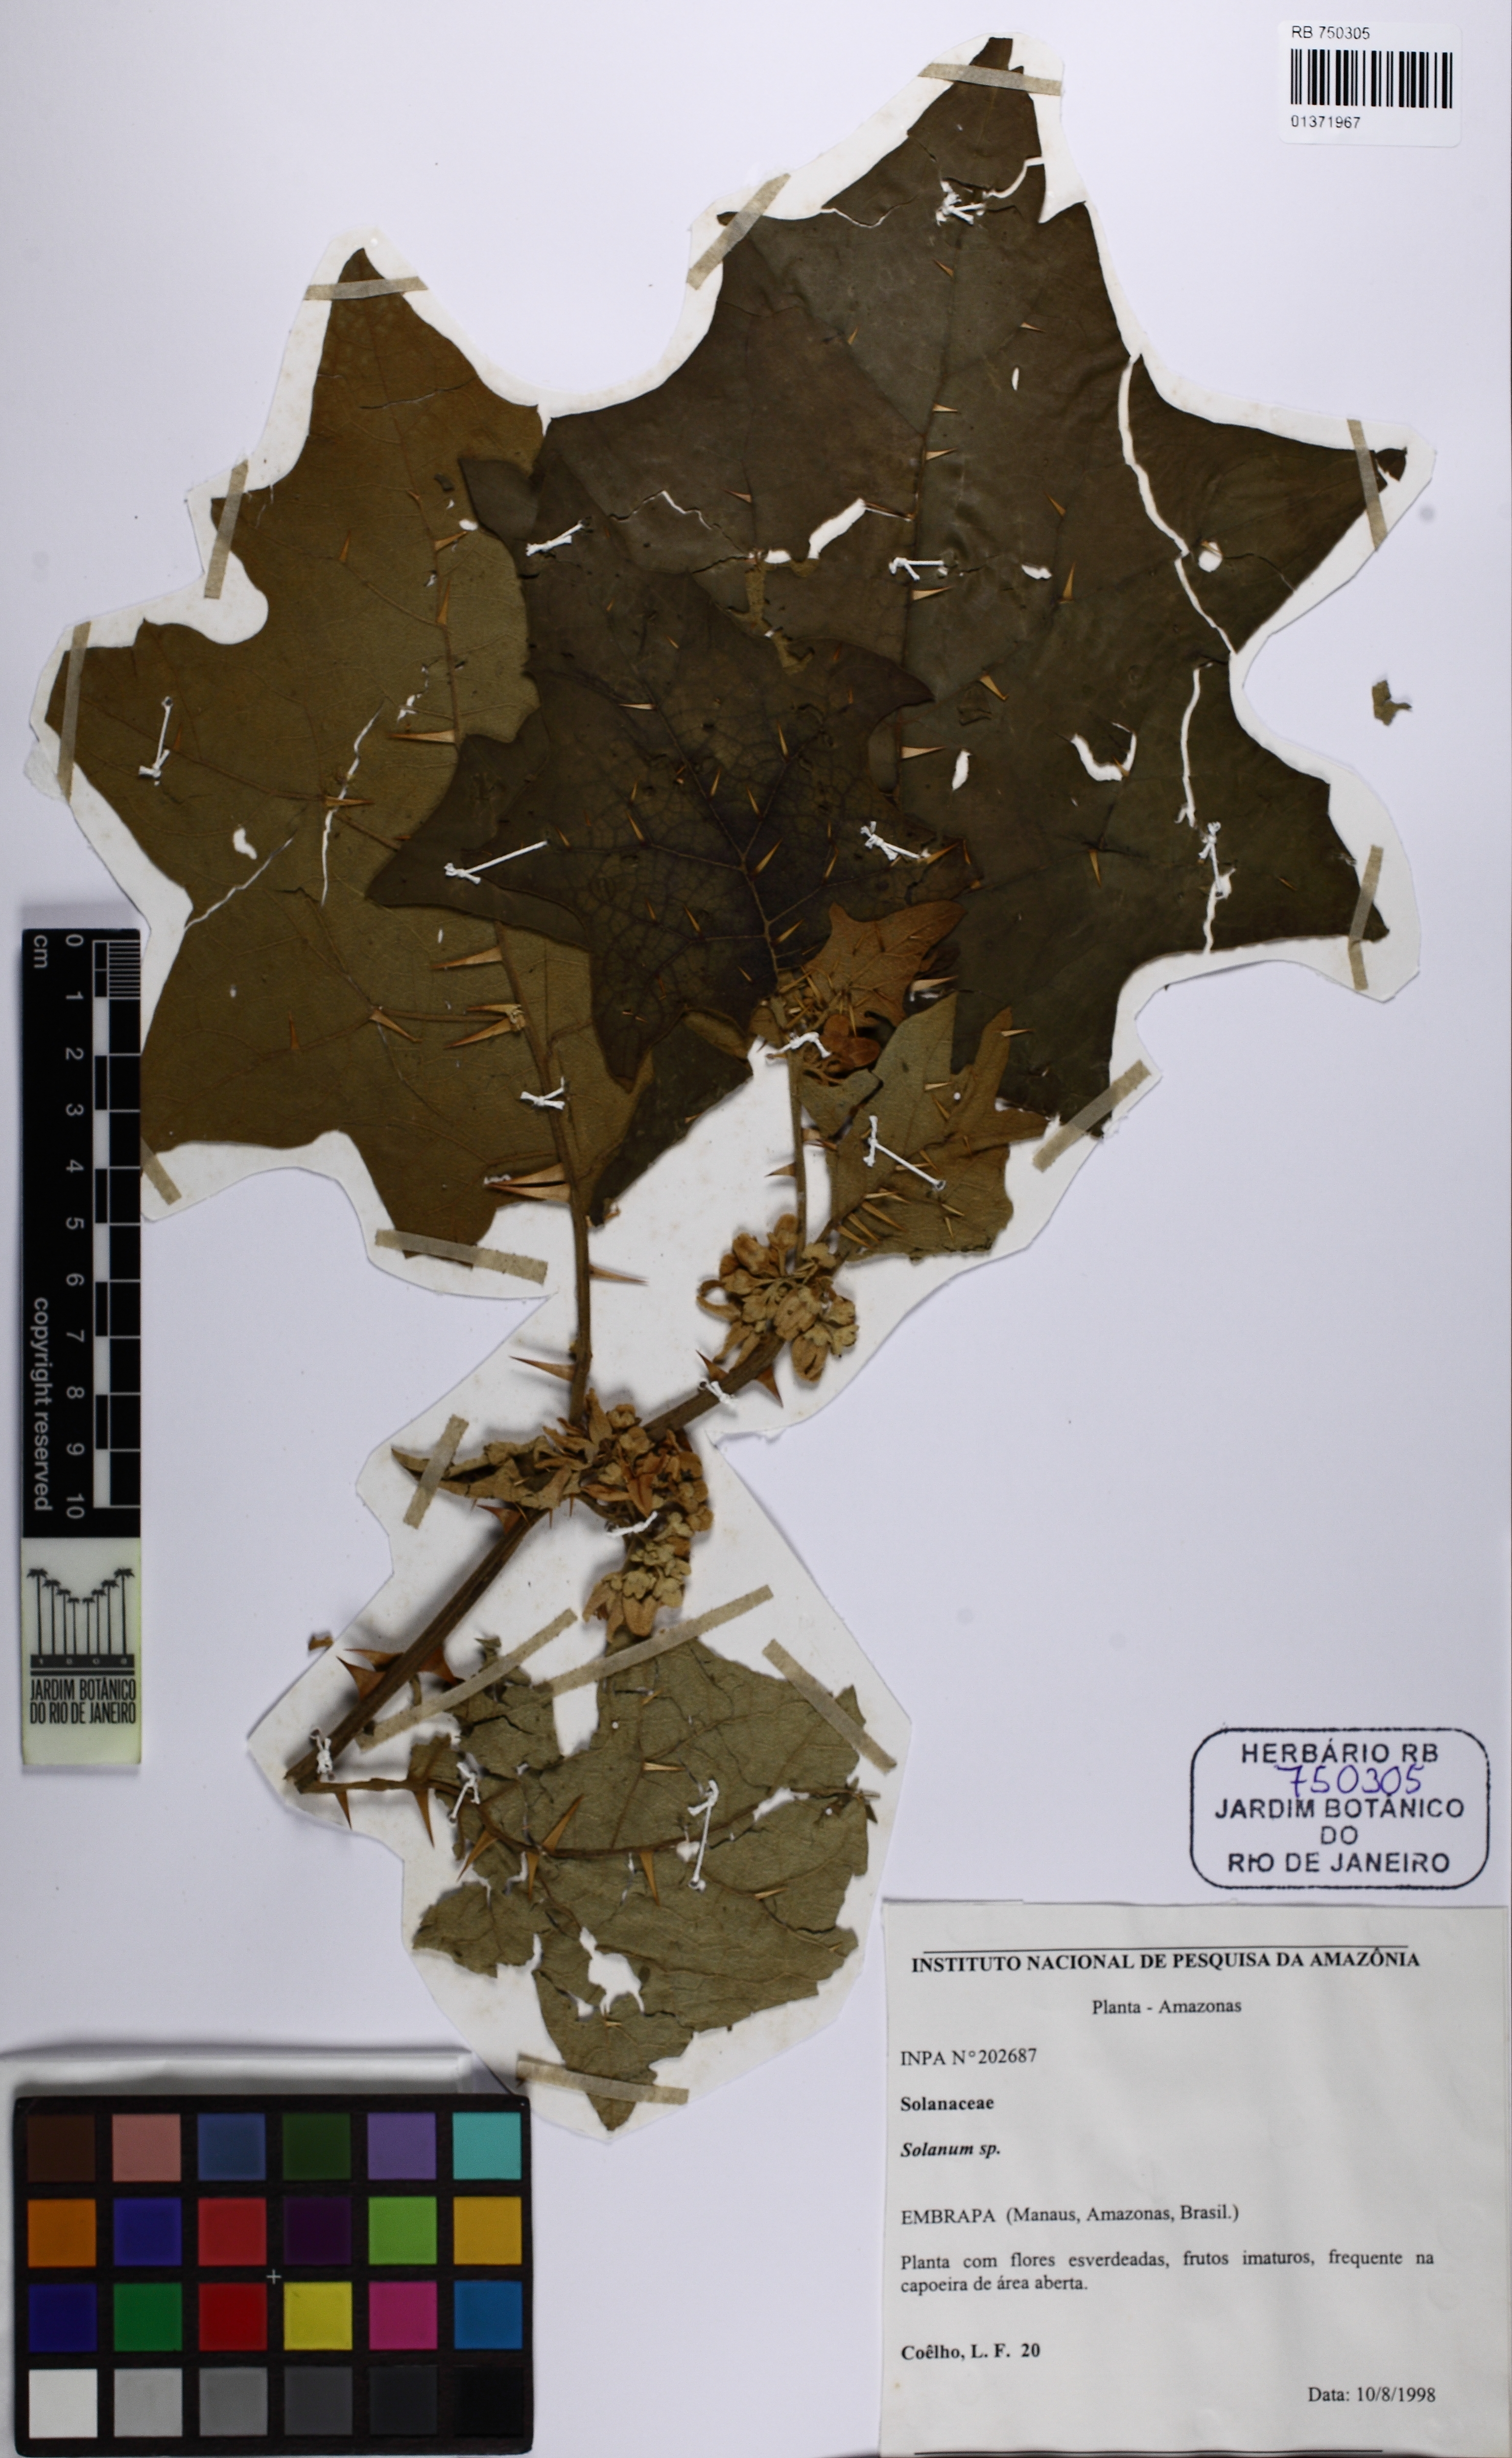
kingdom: Plantae
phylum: Tracheophyta
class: Magnoliopsida
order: Solanales
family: Solanaceae
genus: Solanum
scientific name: Solanum stramonifolium
